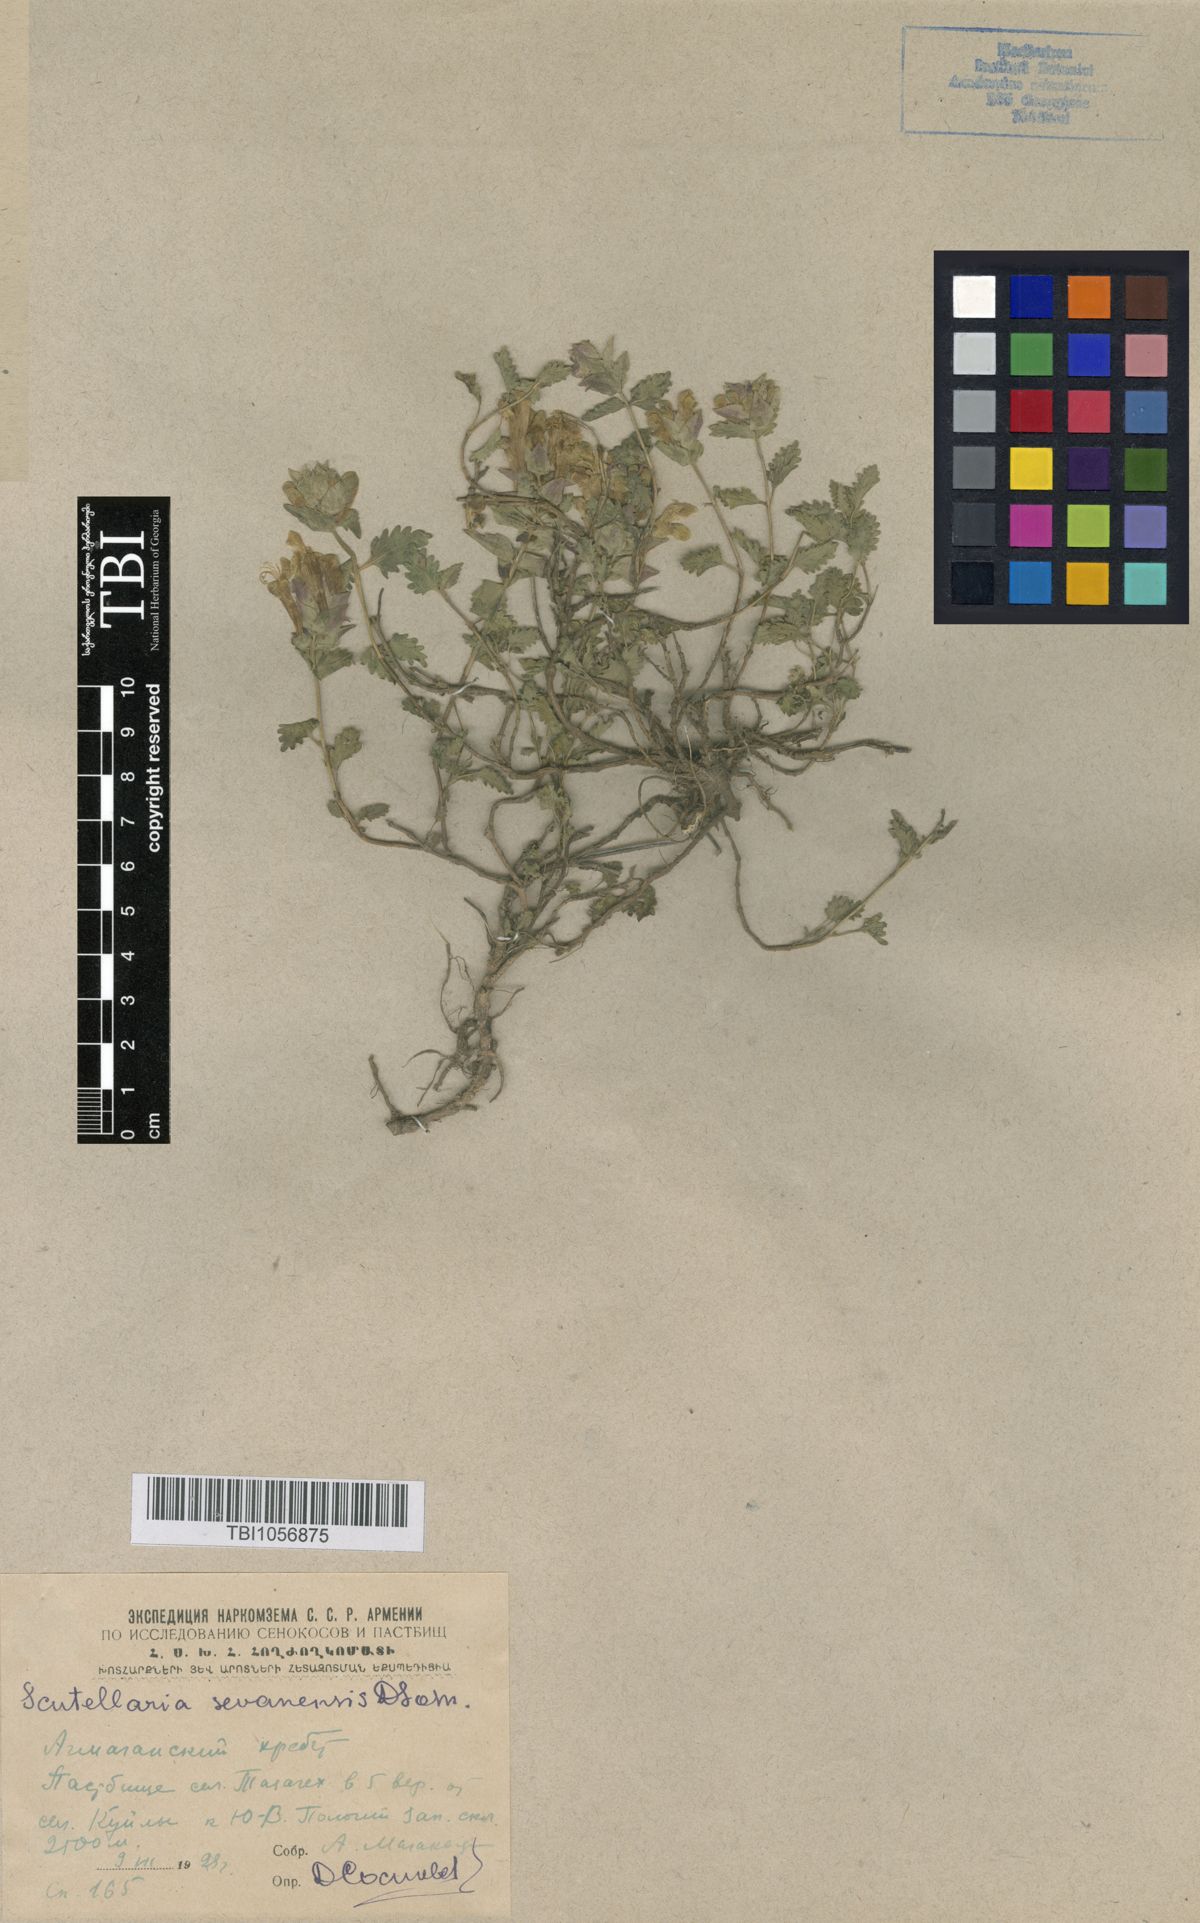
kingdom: Plantae
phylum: Tracheophyta
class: Magnoliopsida
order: Lamiales
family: Lamiaceae
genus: Scutellaria
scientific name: Scutellaria sevanensis
